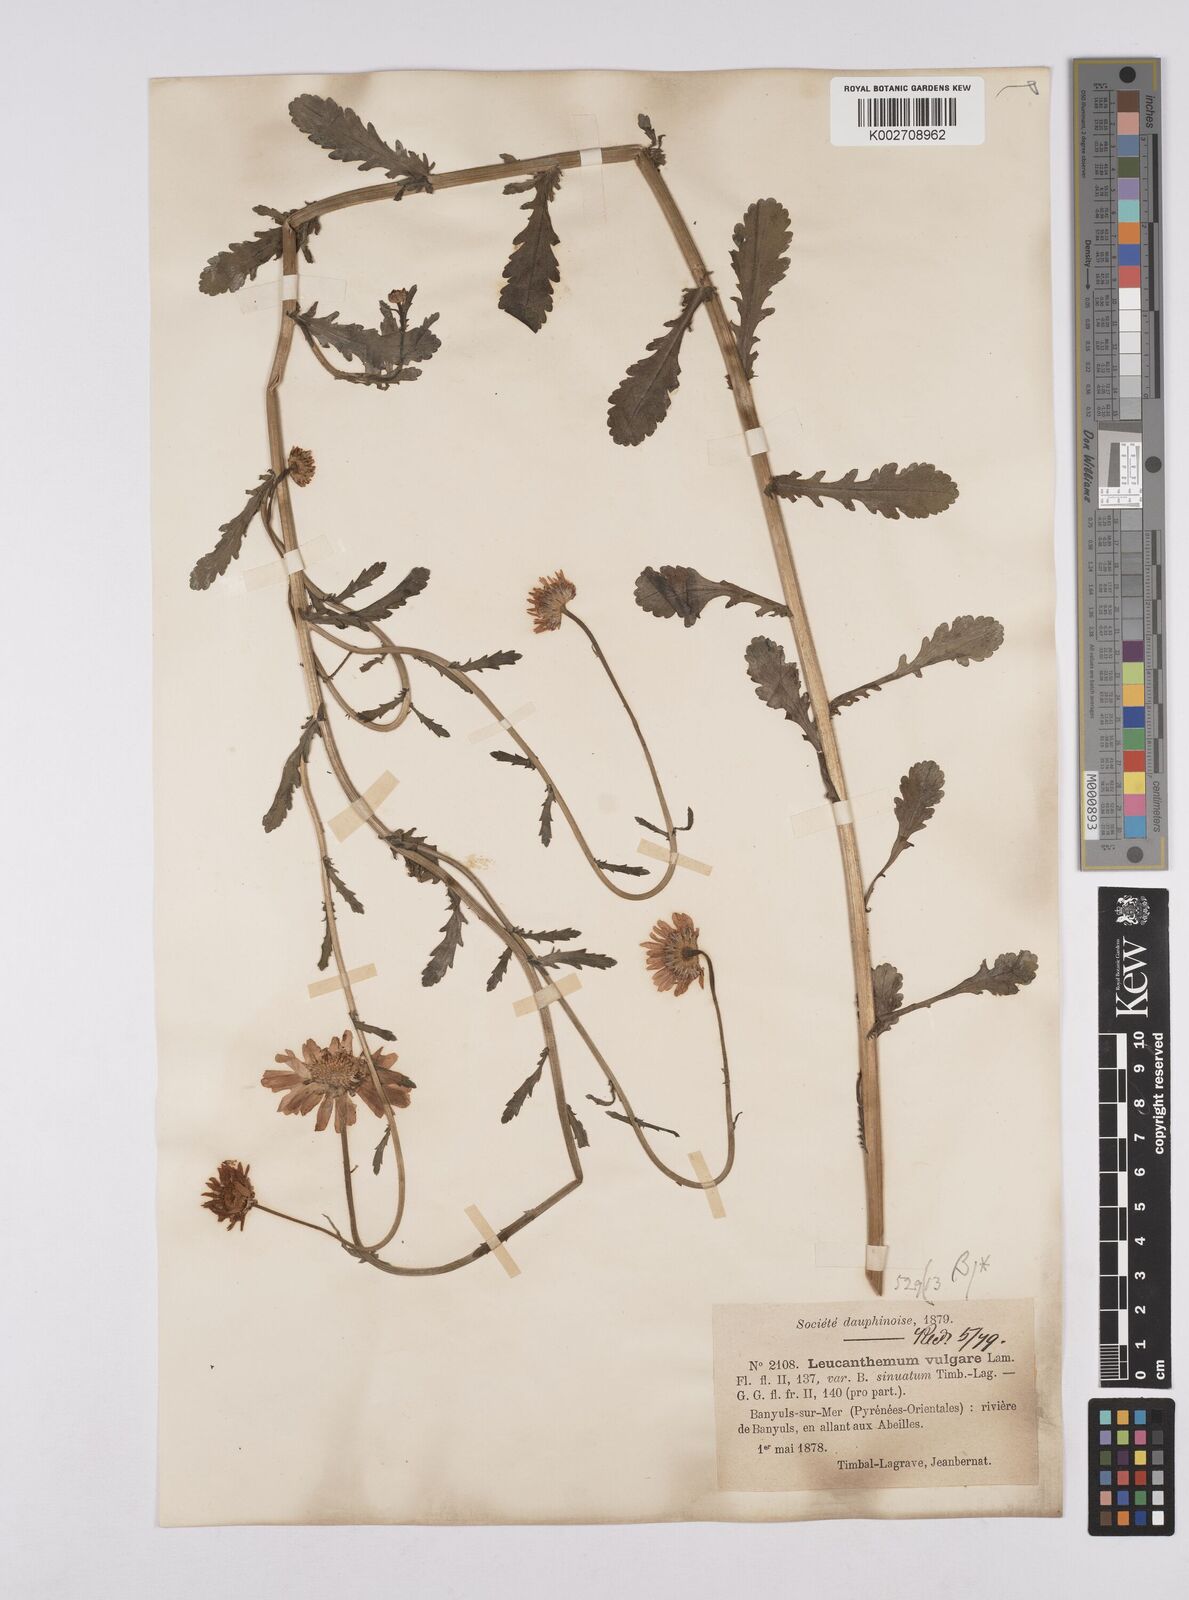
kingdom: Plantae
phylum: Tracheophyta
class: Magnoliopsida
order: Asterales
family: Asteraceae
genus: Leucanthemum
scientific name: Leucanthemum vulgare
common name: Oxeye daisy
